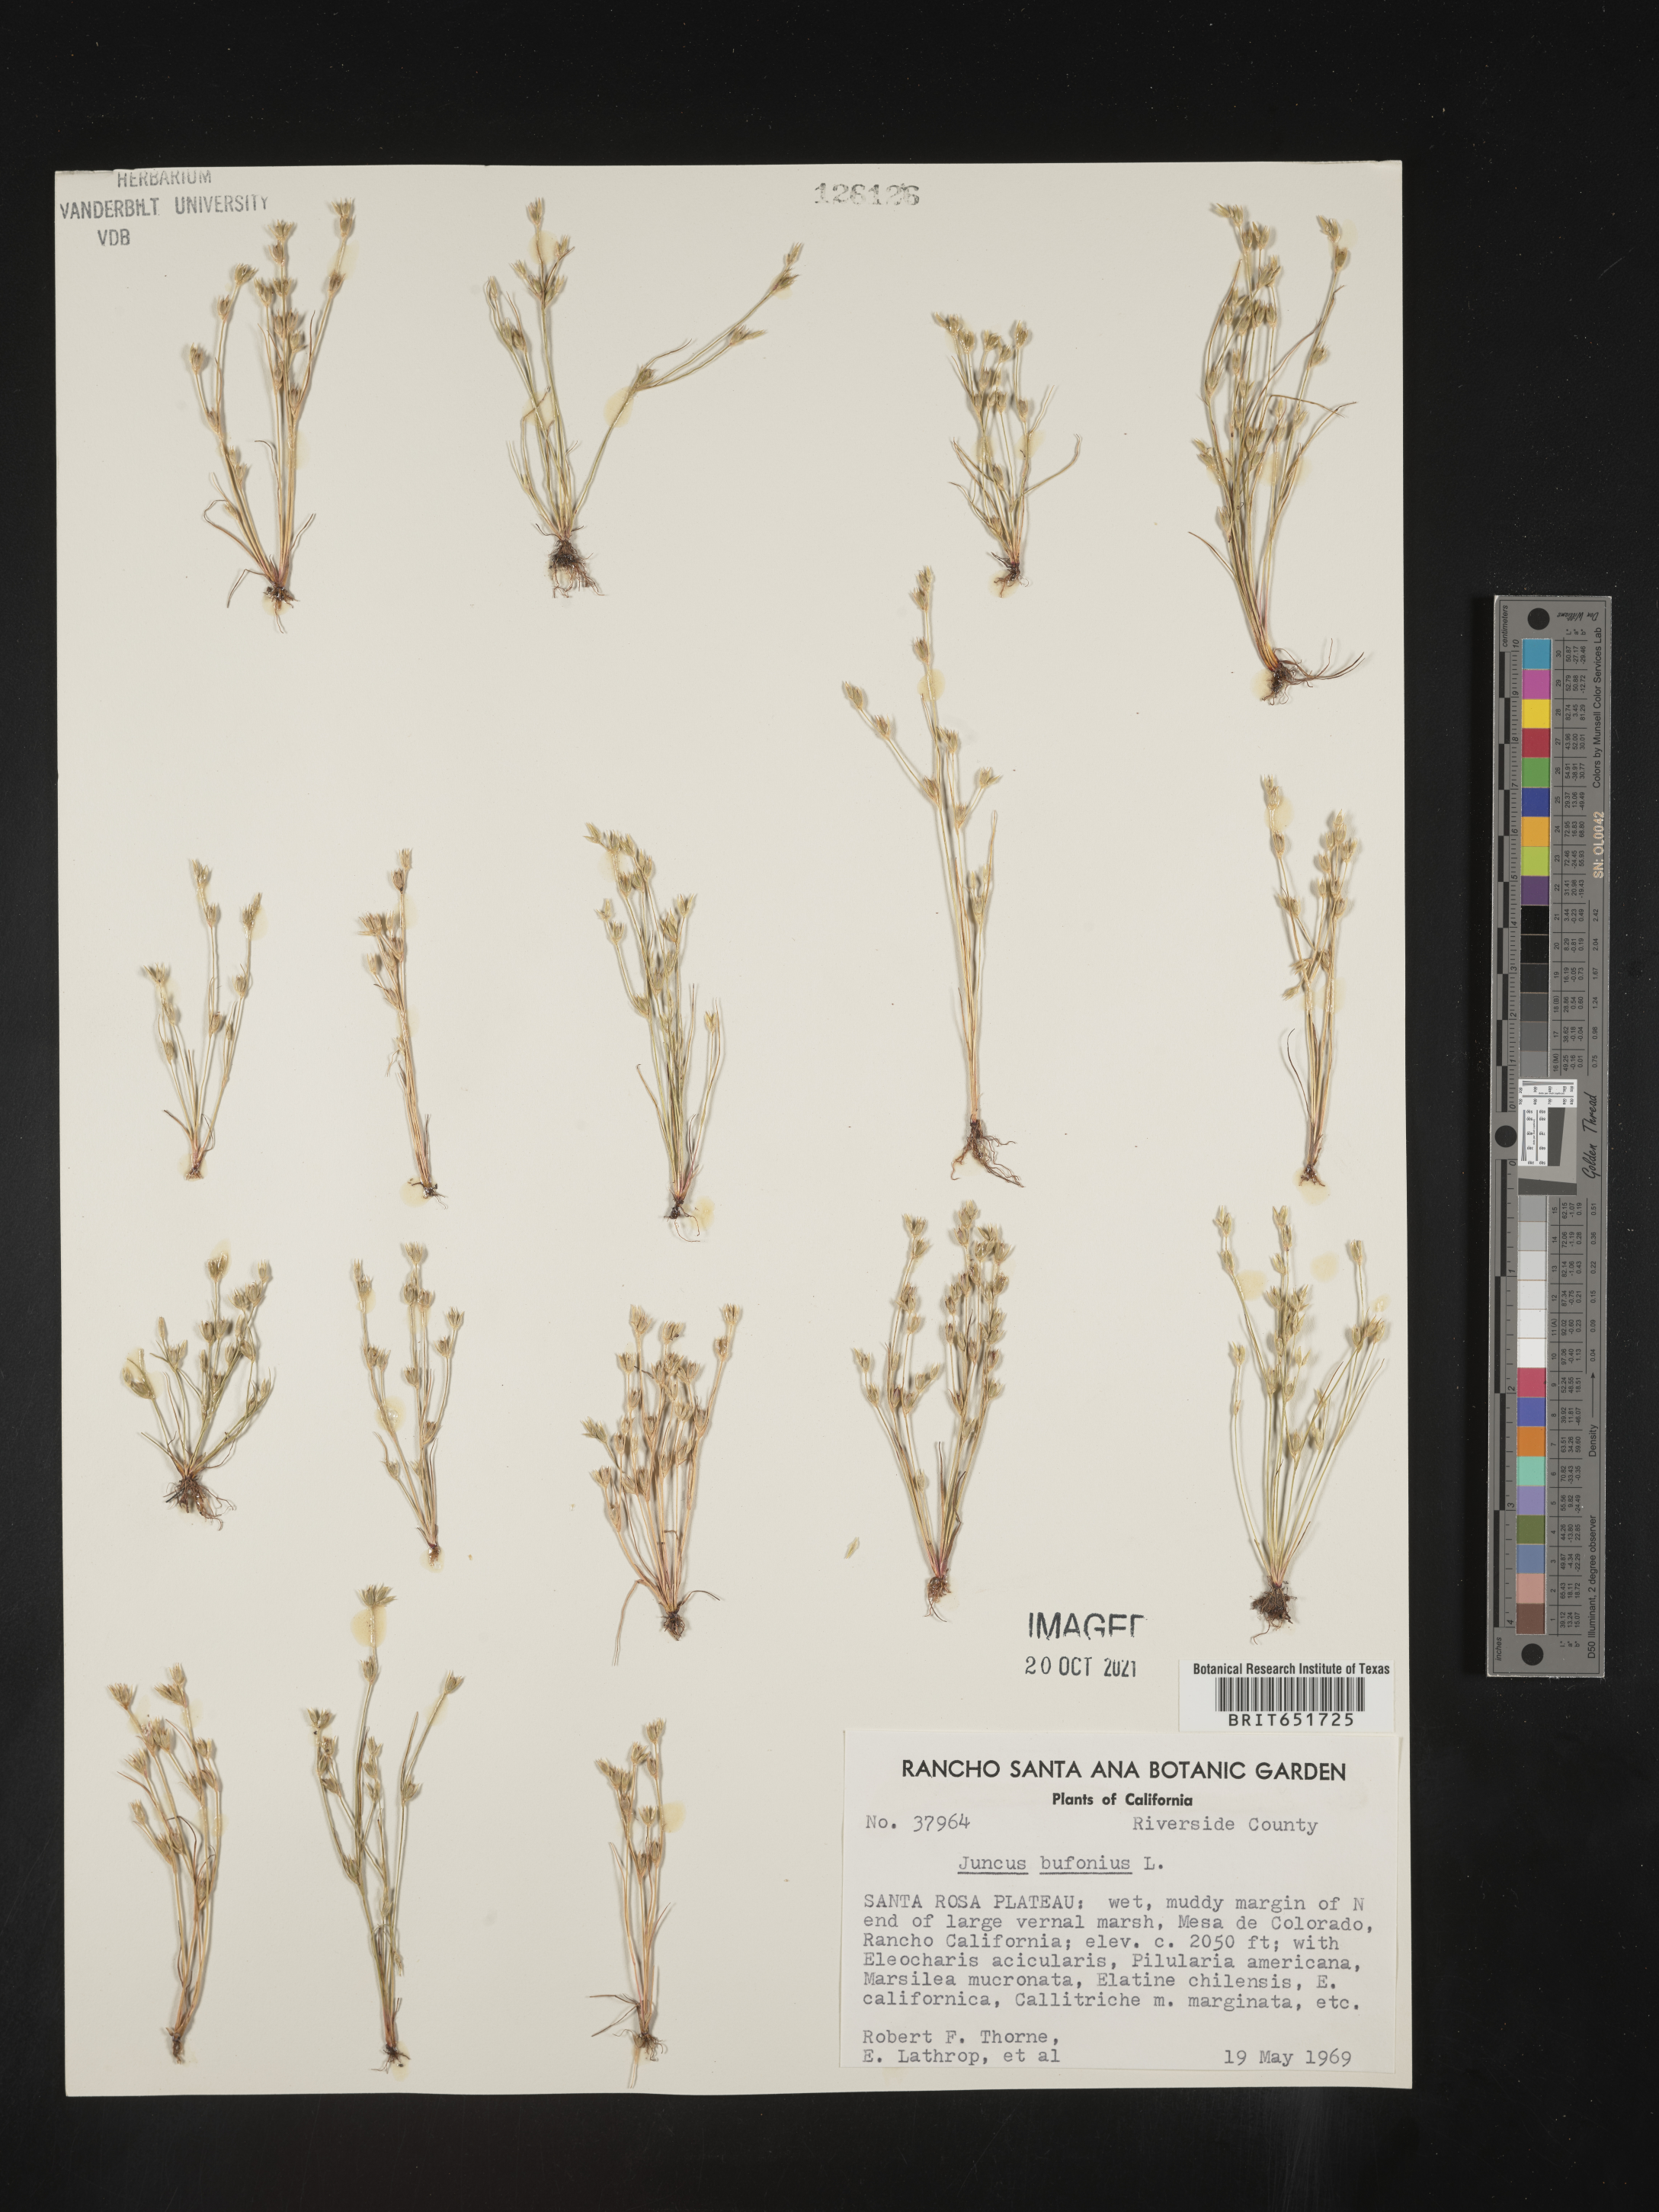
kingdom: Plantae
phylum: Tracheophyta
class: Liliopsida
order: Poales
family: Juncaceae
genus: Juncus
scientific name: Juncus bufonius
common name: Toad rush
